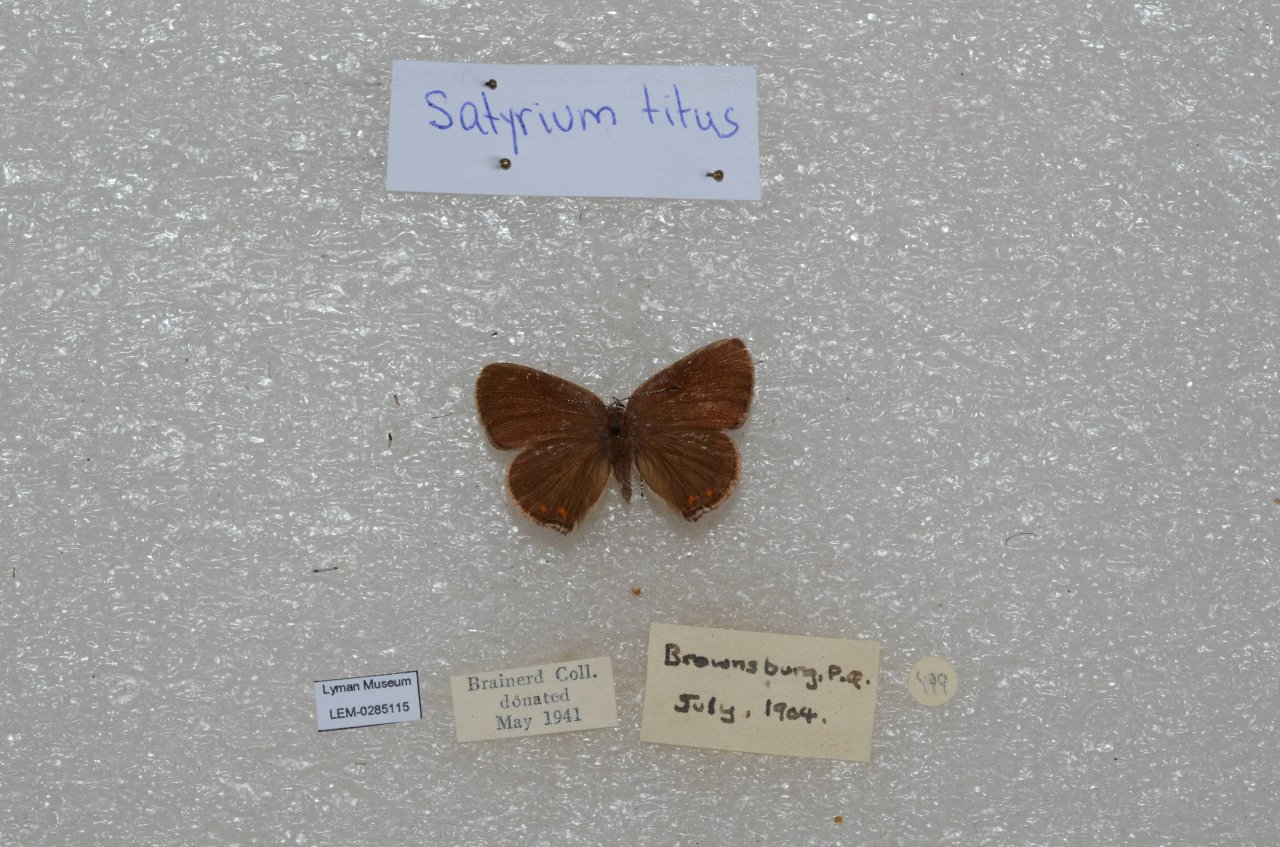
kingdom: Animalia
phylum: Arthropoda
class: Insecta
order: Lepidoptera
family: Lycaenidae
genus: Harkenclenus
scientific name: Harkenclenus titus
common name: Coral Hairstreak
